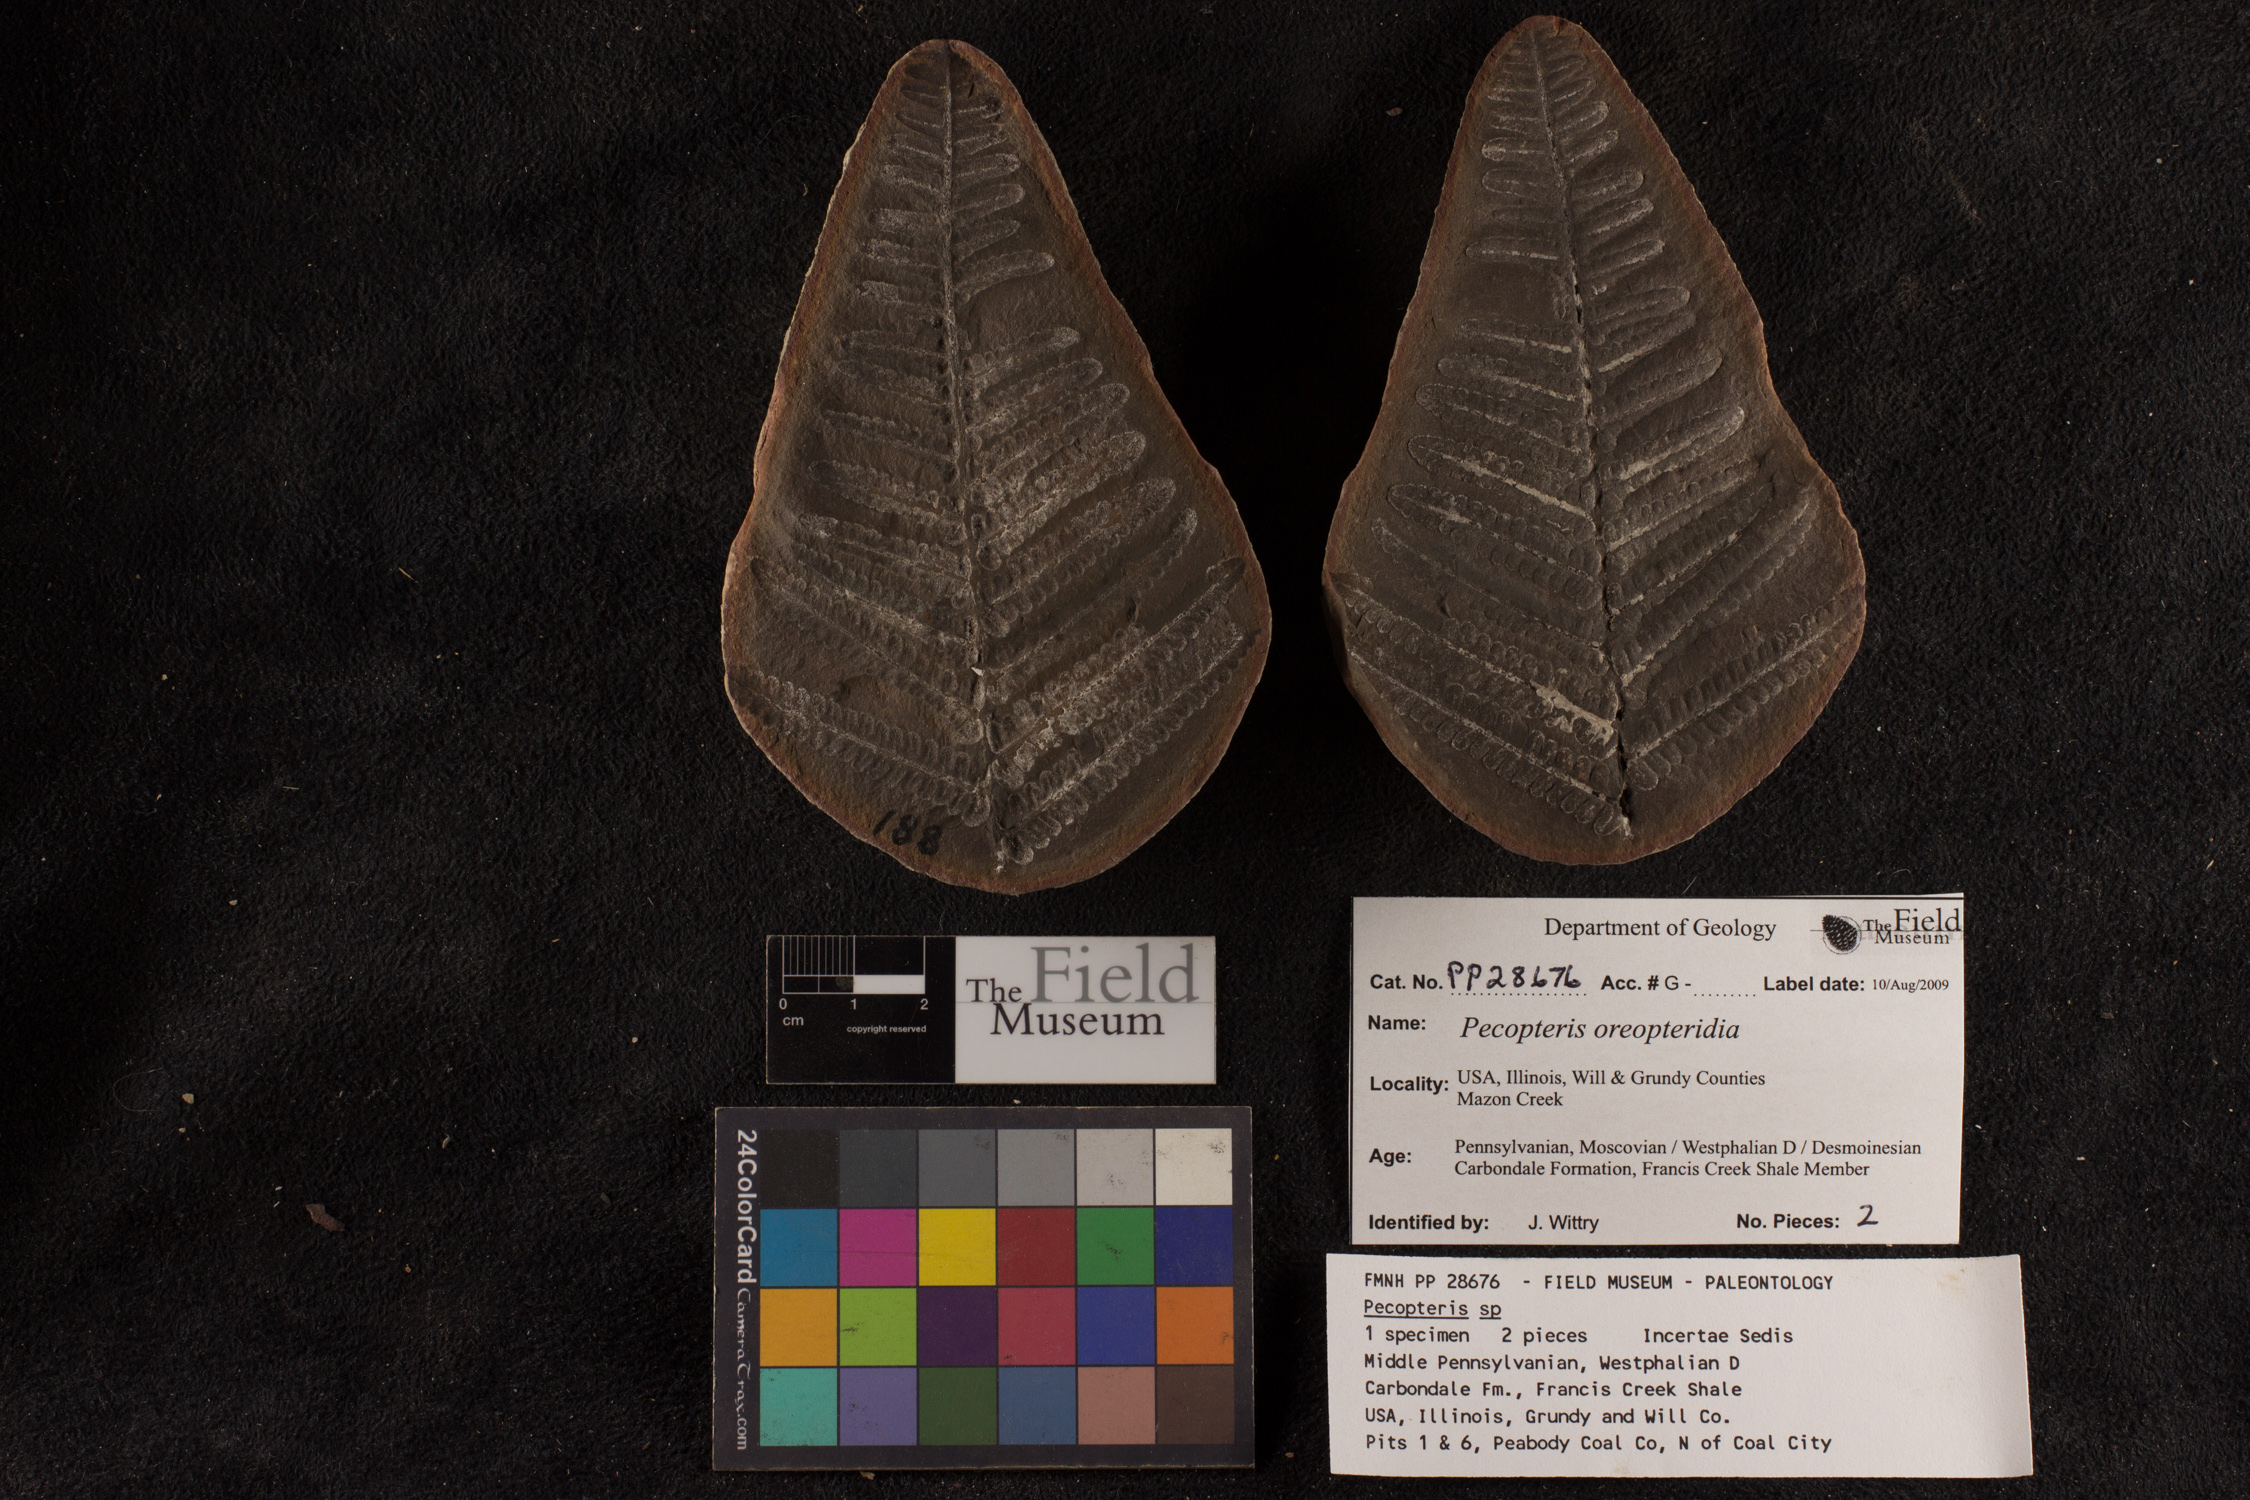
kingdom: Plantae
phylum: Tracheophyta
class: Polypodiopsida
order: Marattiales
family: Asterothecaceae
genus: Pecopteris
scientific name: Pecopteris
